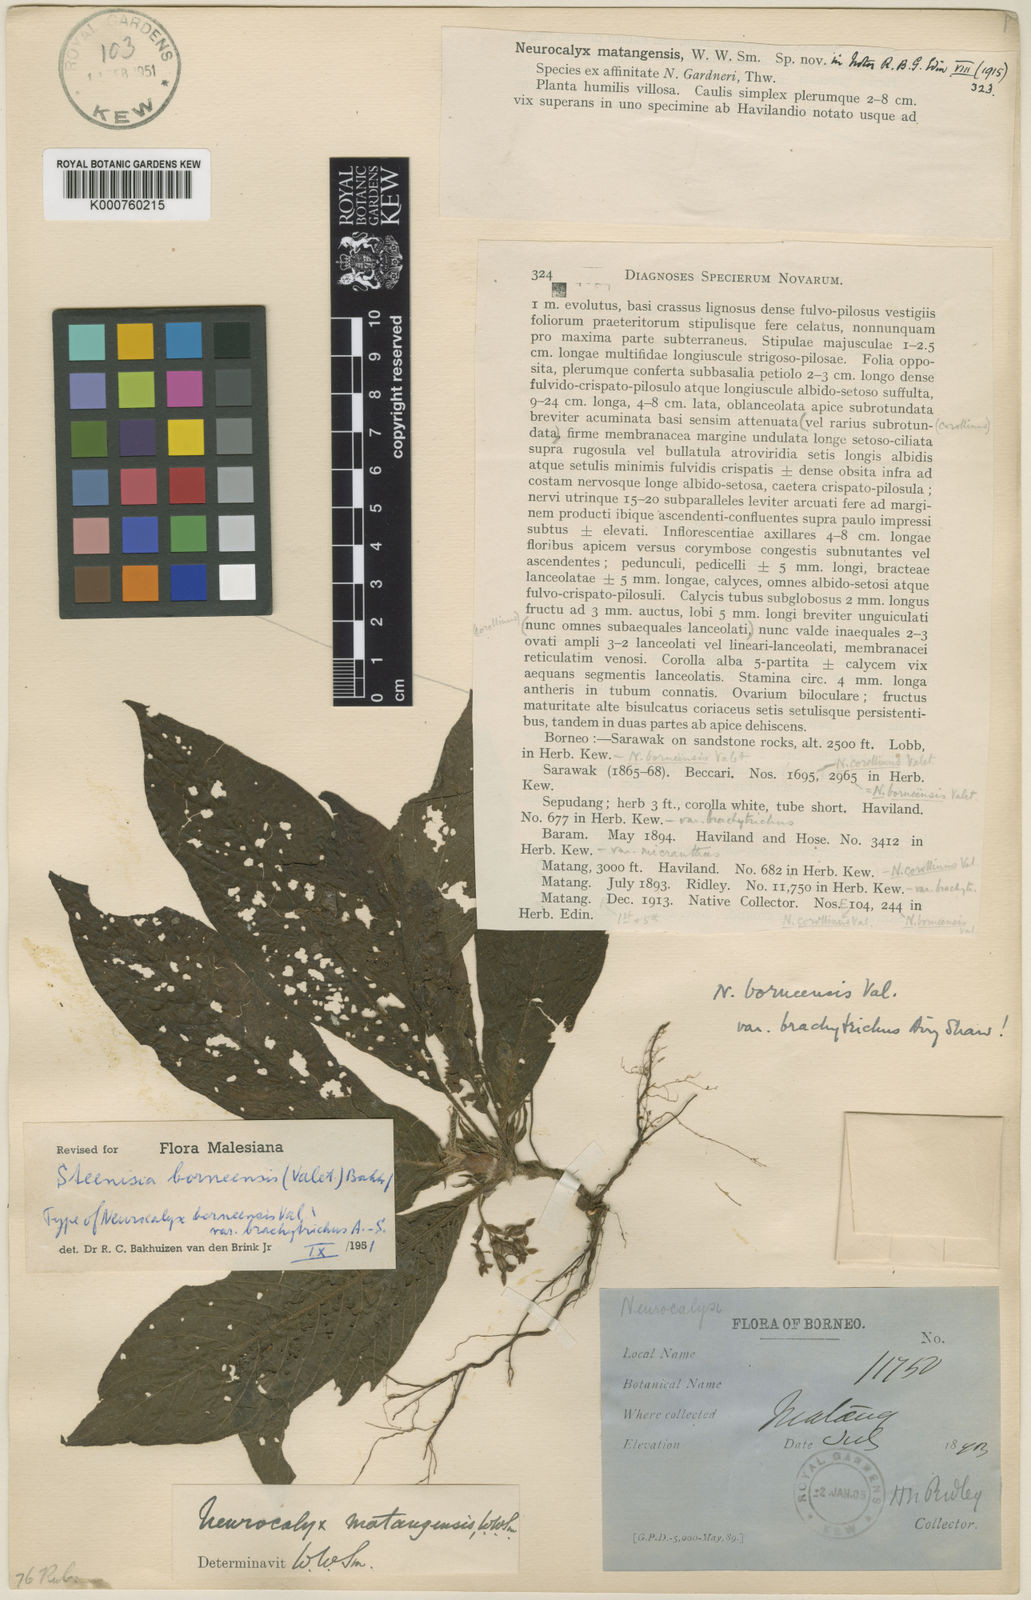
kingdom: Plantae
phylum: Tracheophyta
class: Magnoliopsida
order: Gentianales
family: Rubiaceae
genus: Steenisia
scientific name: Steenisia borneensis
